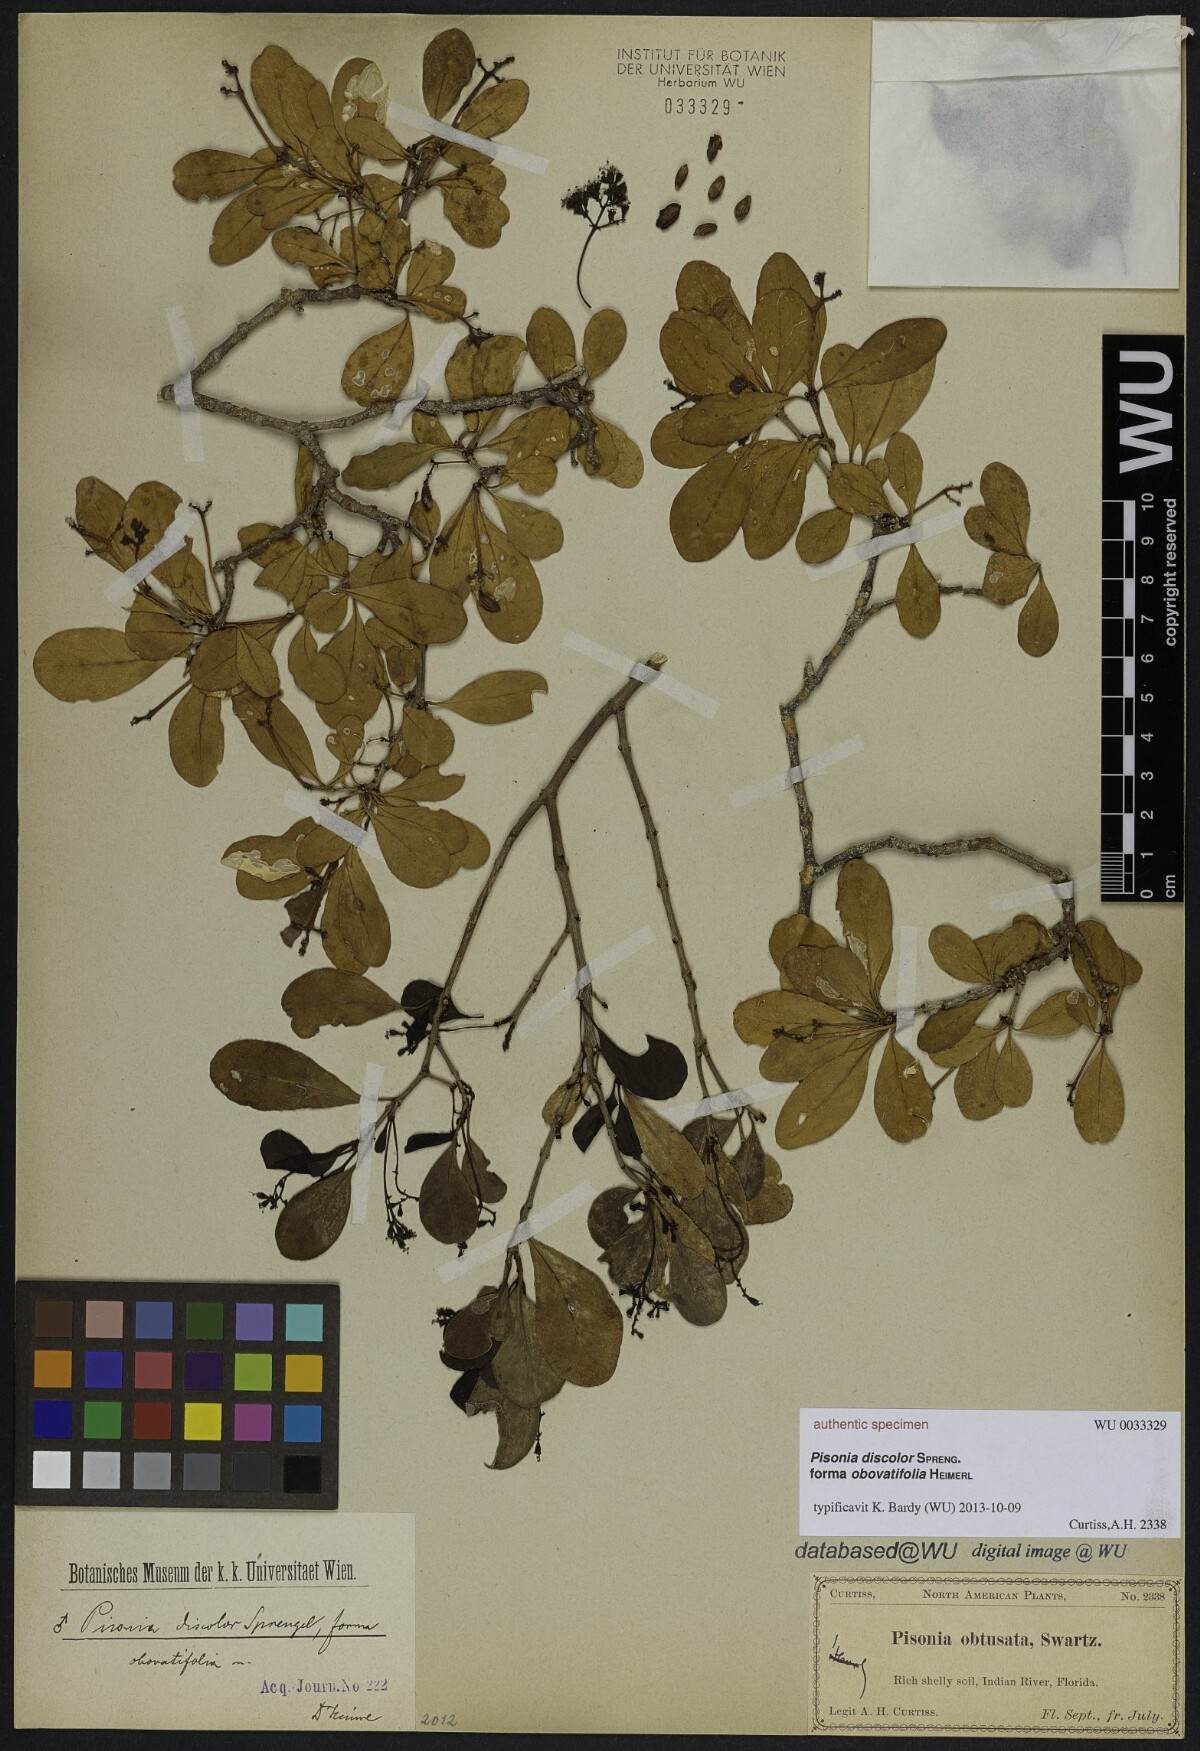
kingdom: Plantae
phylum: Tracheophyta
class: Magnoliopsida
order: Caryophyllales
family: Nyctaginaceae
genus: Guapira
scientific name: Guapira discolor
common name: Beeftree
